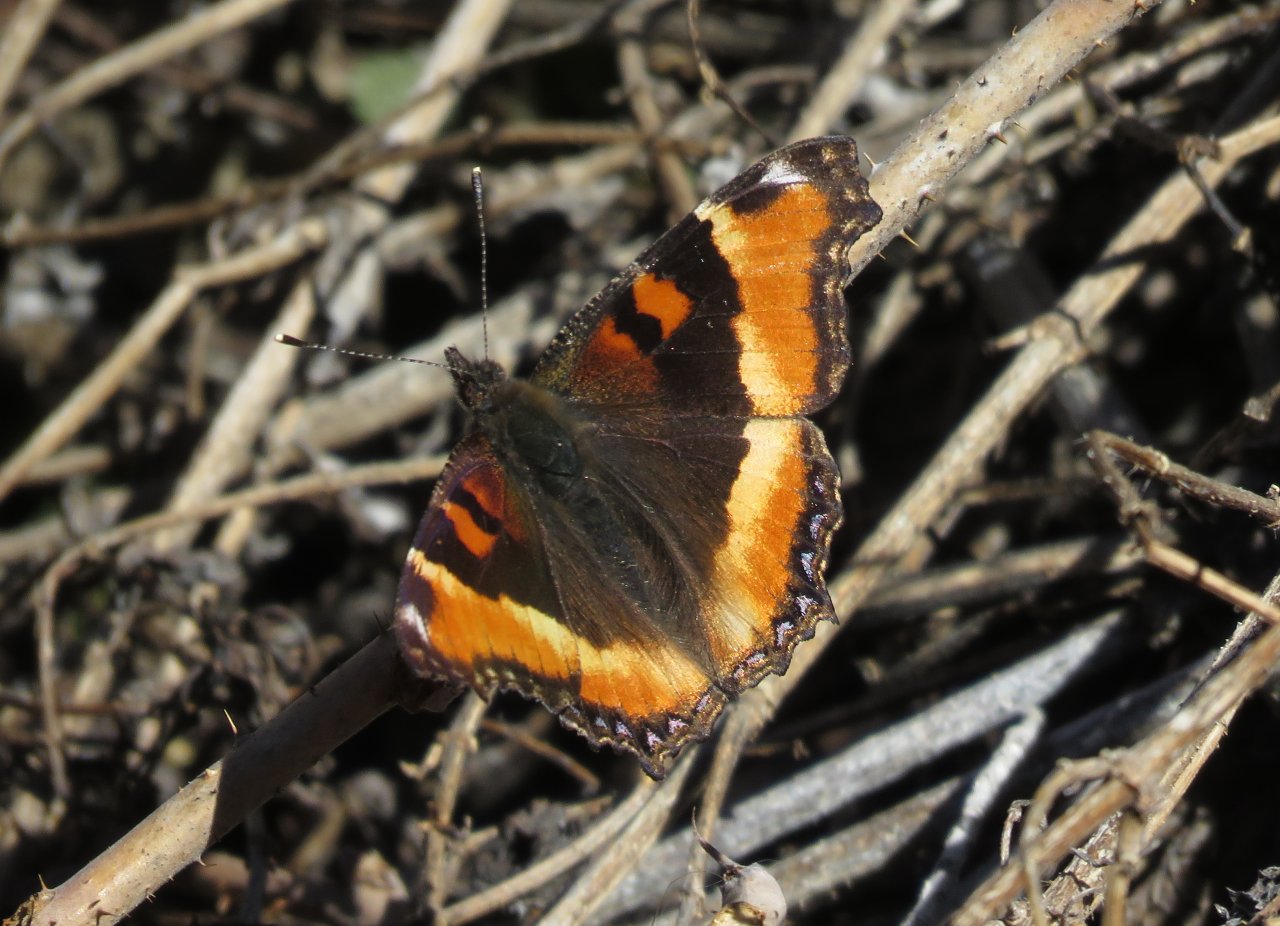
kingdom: Animalia
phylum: Arthropoda
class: Insecta
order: Lepidoptera
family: Nymphalidae
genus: Aglais
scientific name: Aglais milberti
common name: Milbert's Tortoiseshell
